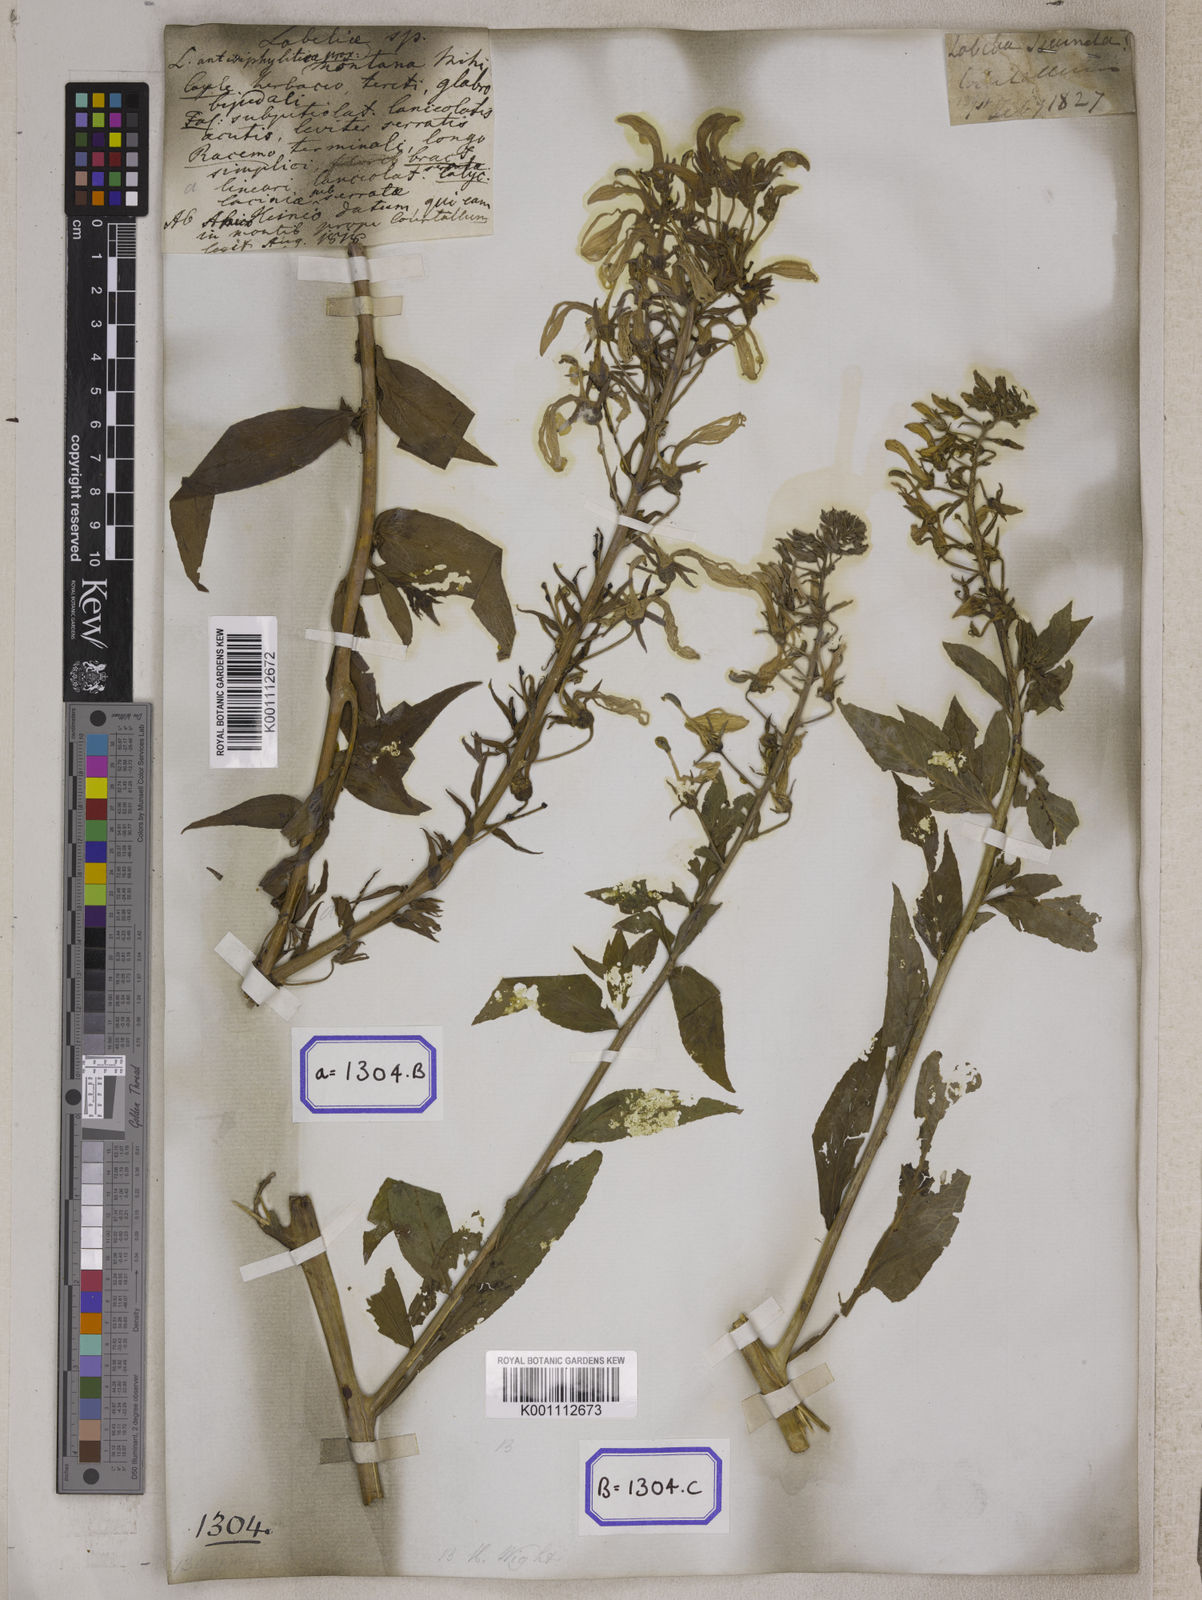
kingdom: Plantae
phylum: Tracheophyta
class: Magnoliopsida
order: Asterales
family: Campanulaceae
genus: Lobelia
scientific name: Lobelia
